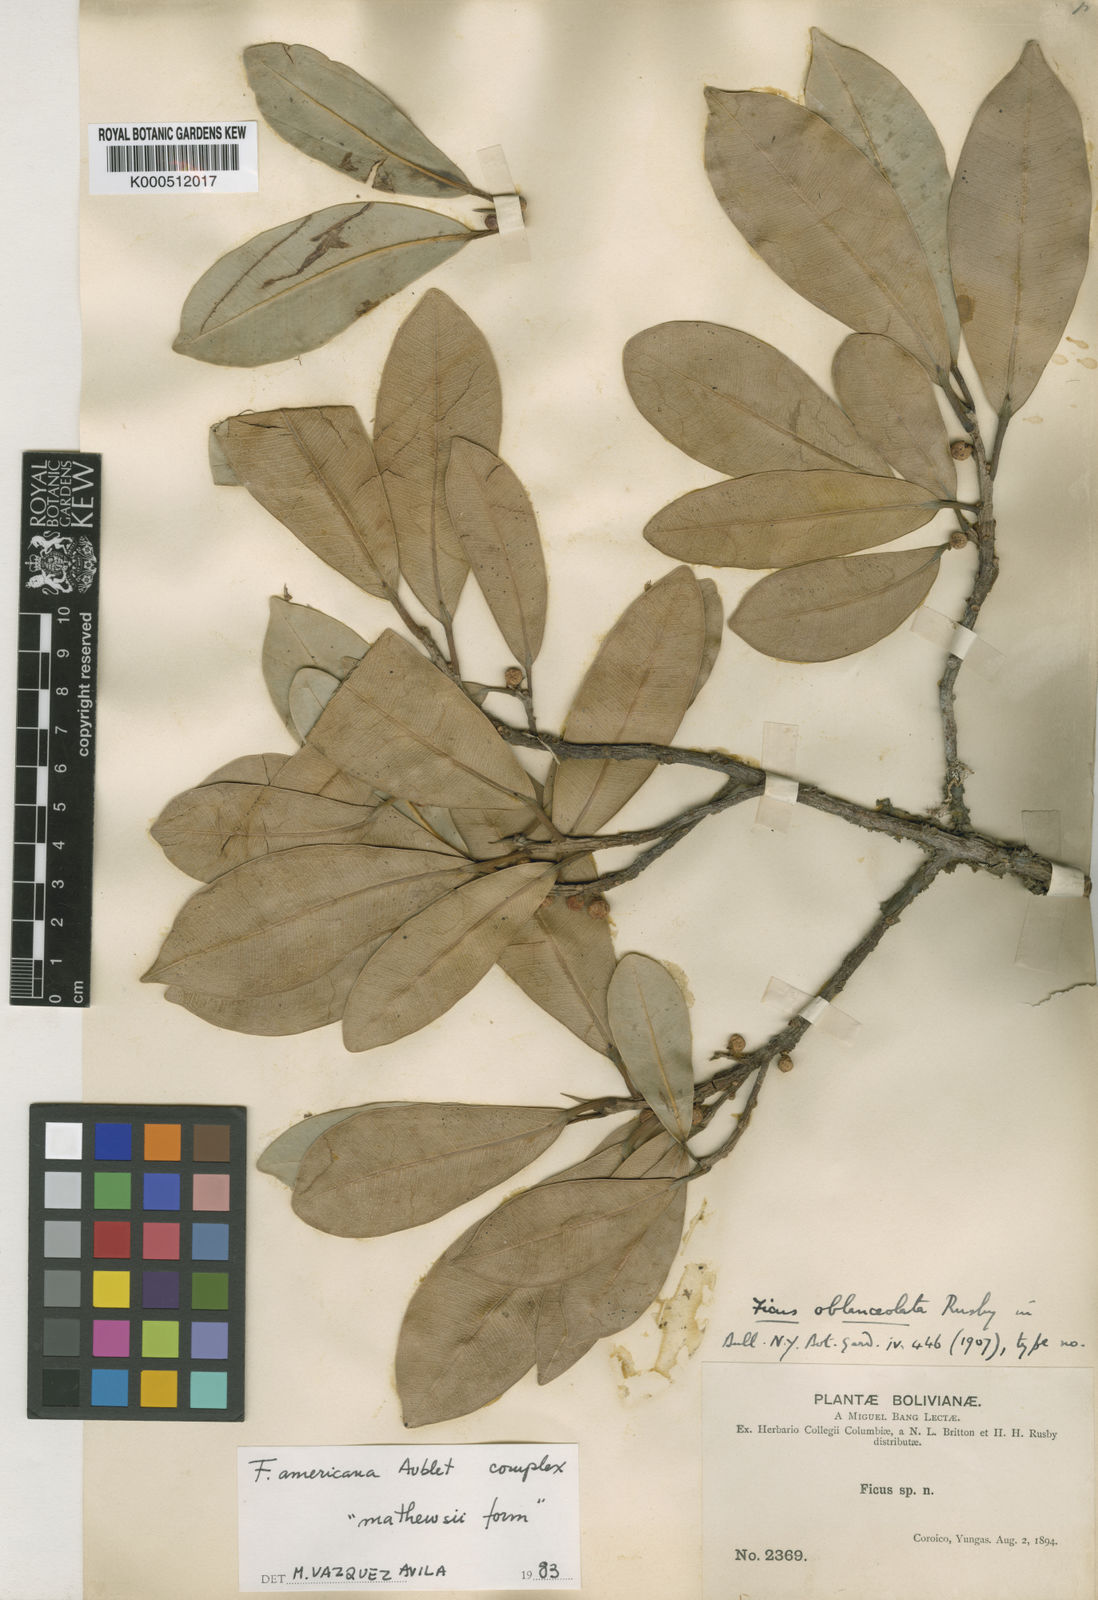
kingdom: Plantae
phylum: Tracheophyta
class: Magnoliopsida
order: Rosales
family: Moraceae
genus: Ficus
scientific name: Ficus
